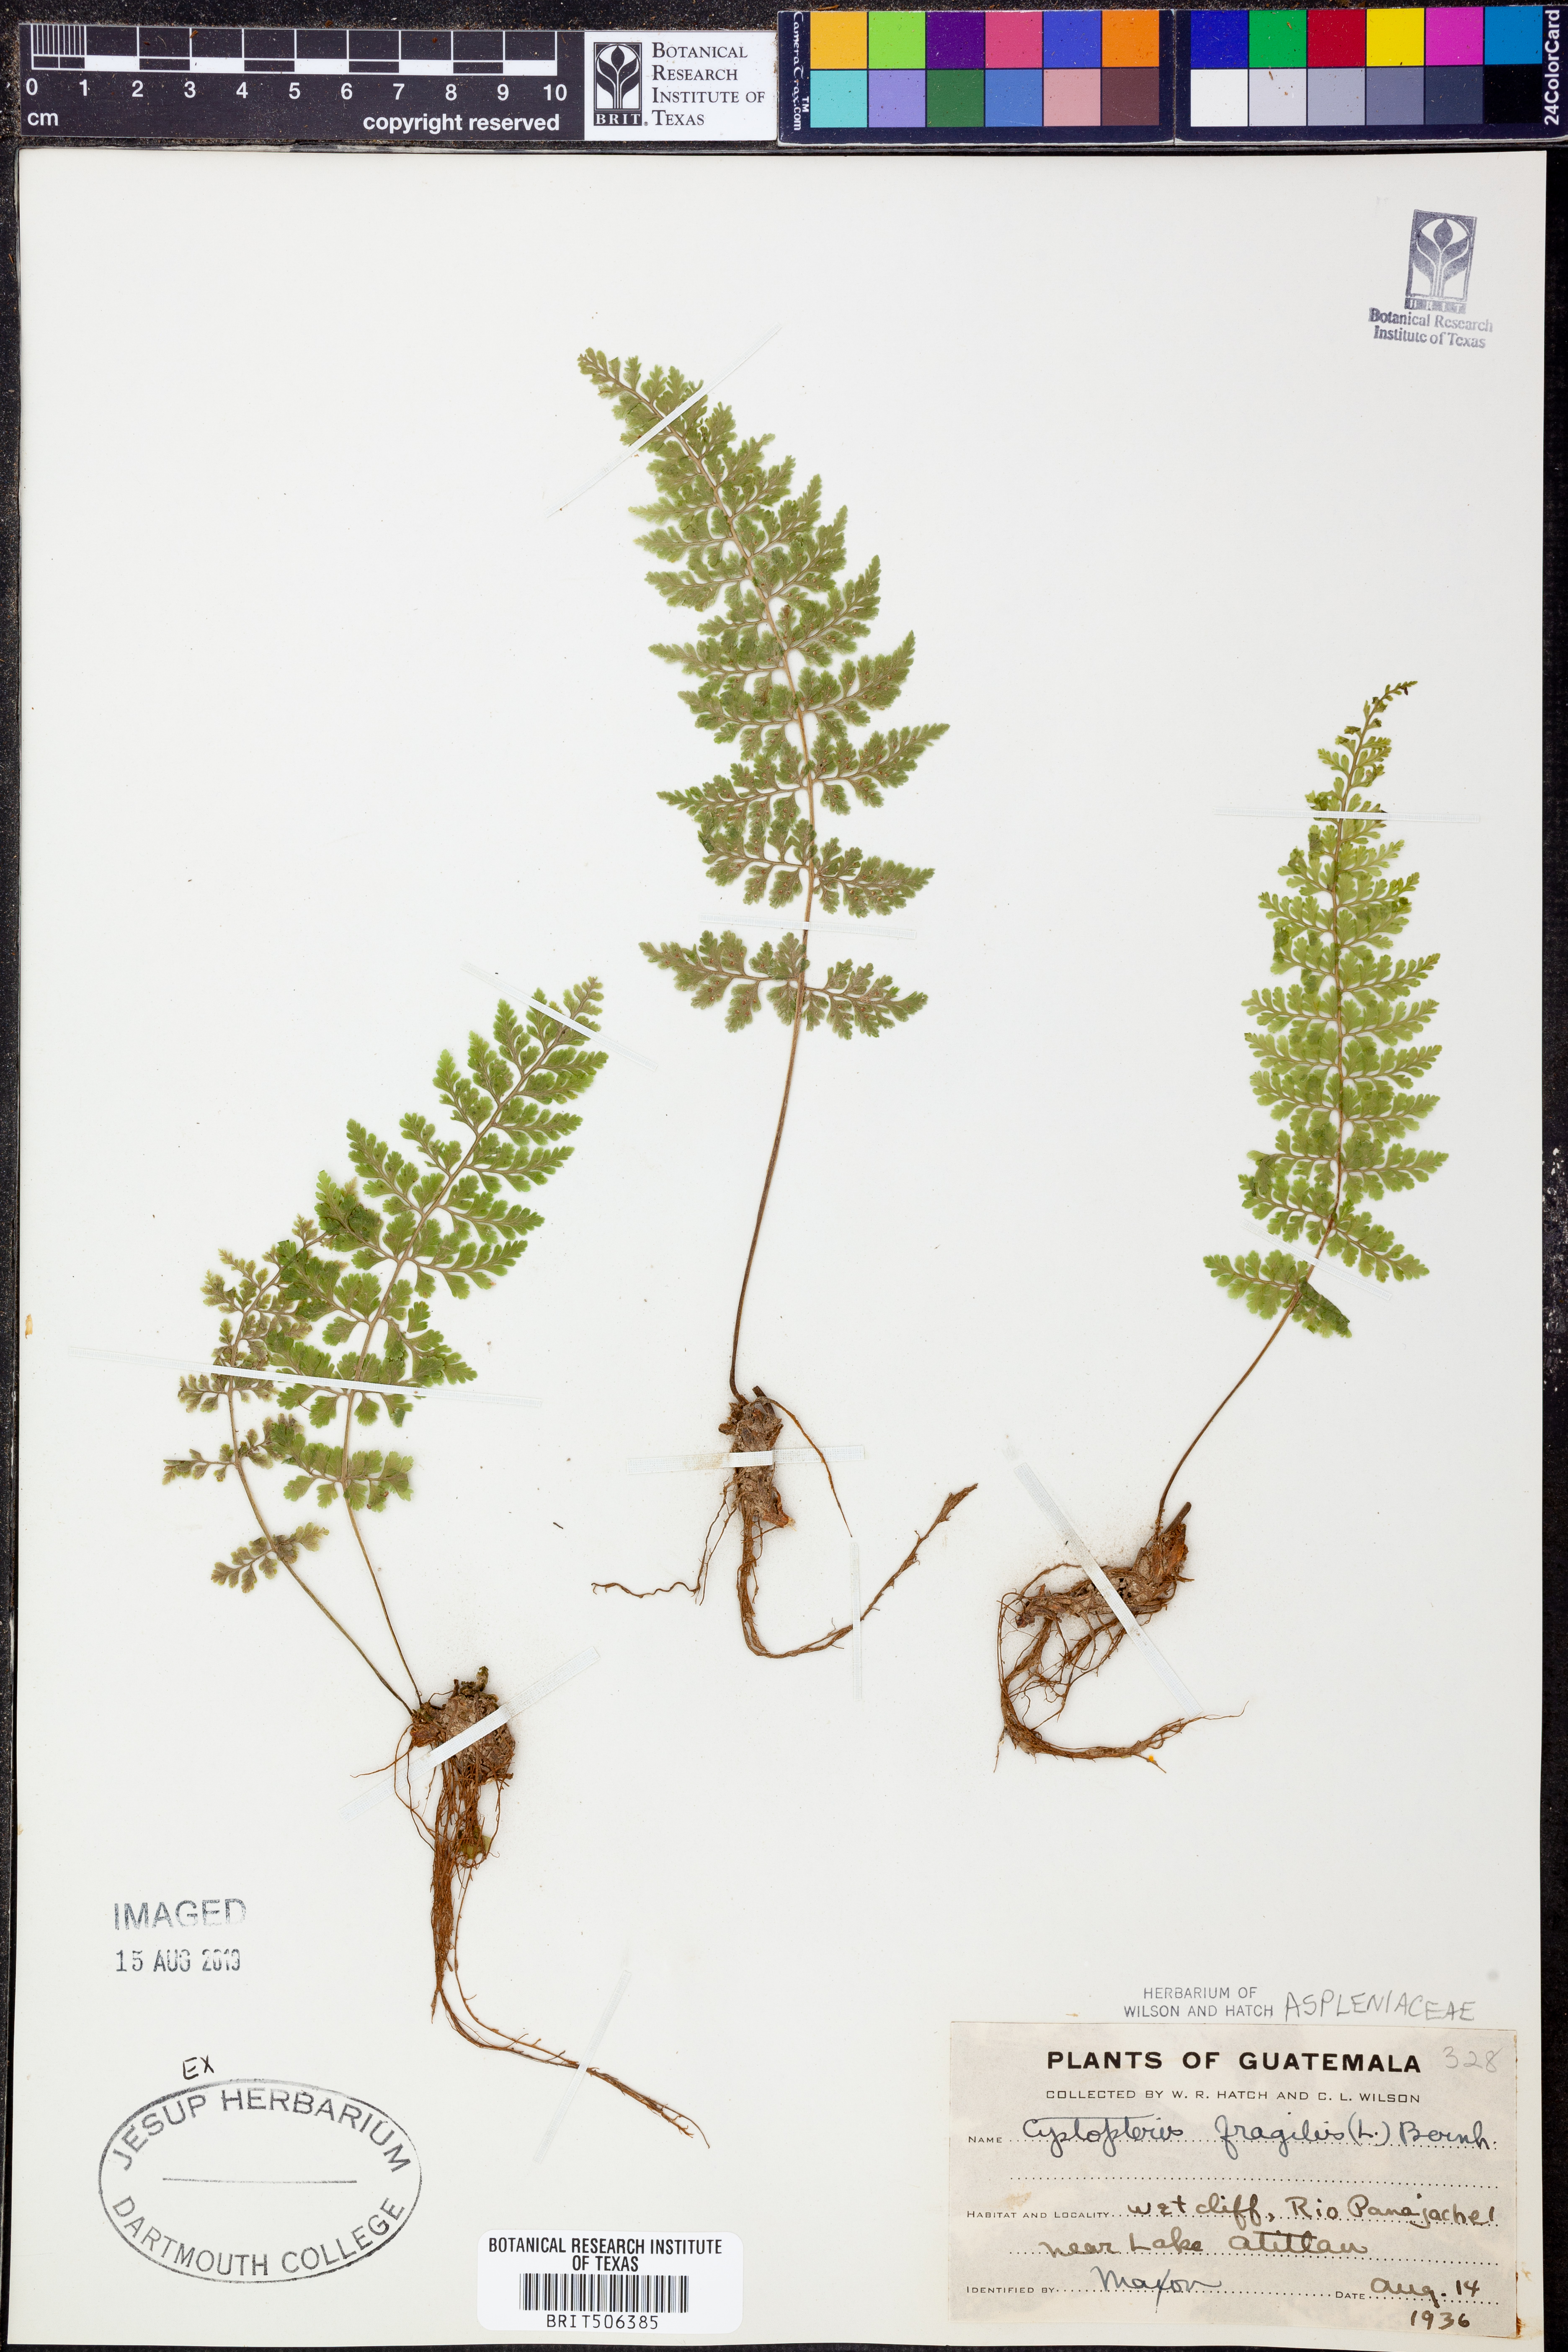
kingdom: Plantae
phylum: Tracheophyta
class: Polypodiopsida
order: Polypodiales
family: Cystopteridaceae
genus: Cystopteris
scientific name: Cystopteris fragilis
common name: Brittle bladder fern
